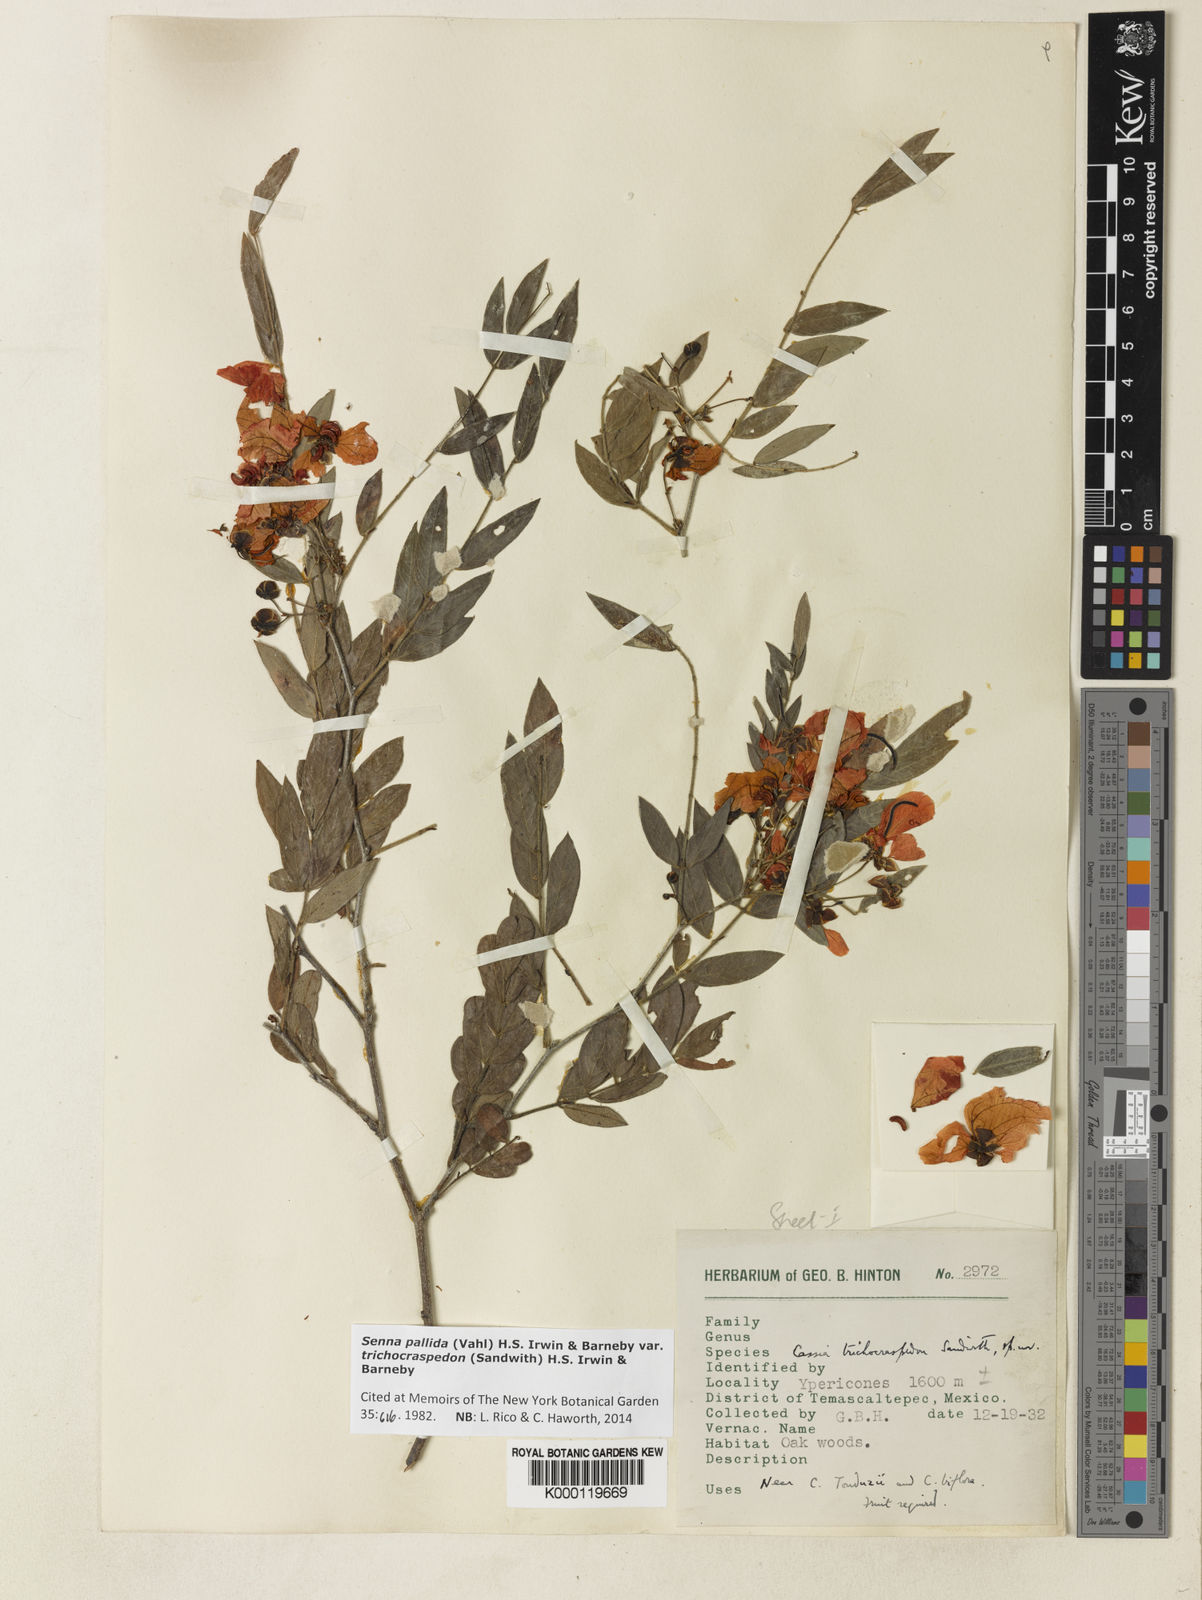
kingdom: Plantae
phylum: Tracheophyta
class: Magnoliopsida
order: Fabales
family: Fabaceae
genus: Senna
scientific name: Senna pallida
